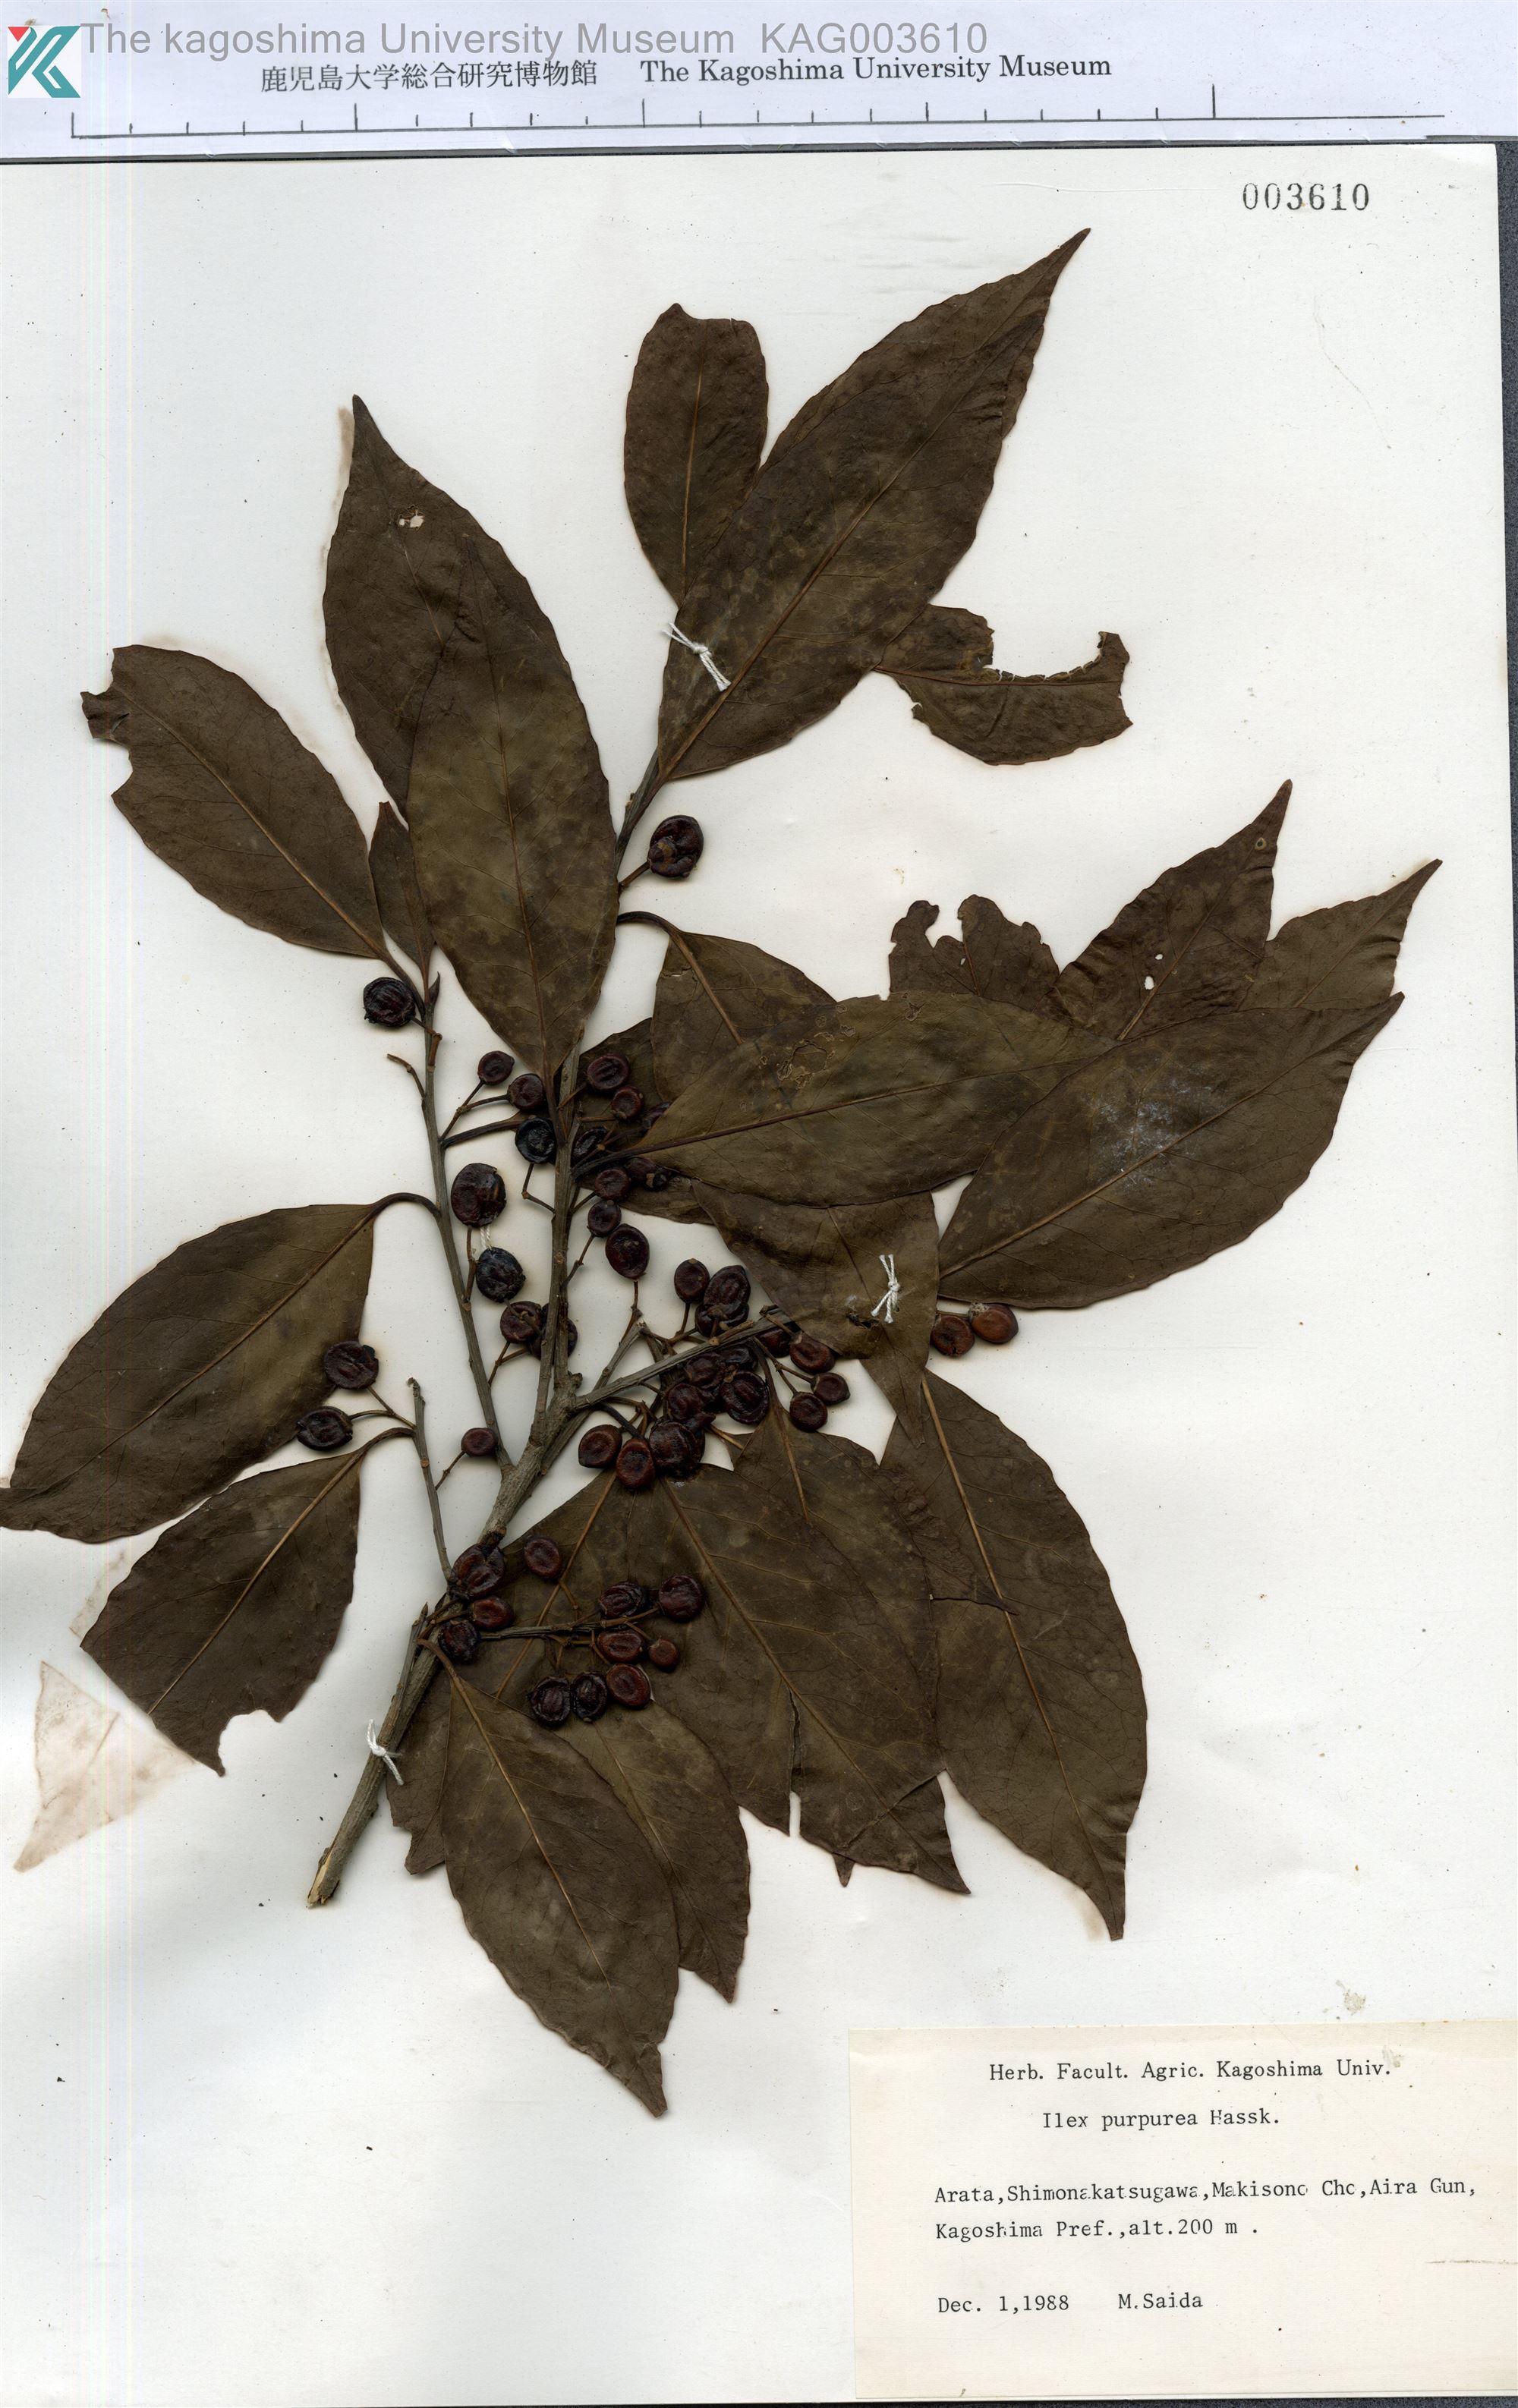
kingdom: Plantae
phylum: Tracheophyta
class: Magnoliopsida
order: Aquifoliales
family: Aquifoliaceae
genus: Ilex
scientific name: Ilex chinensis
